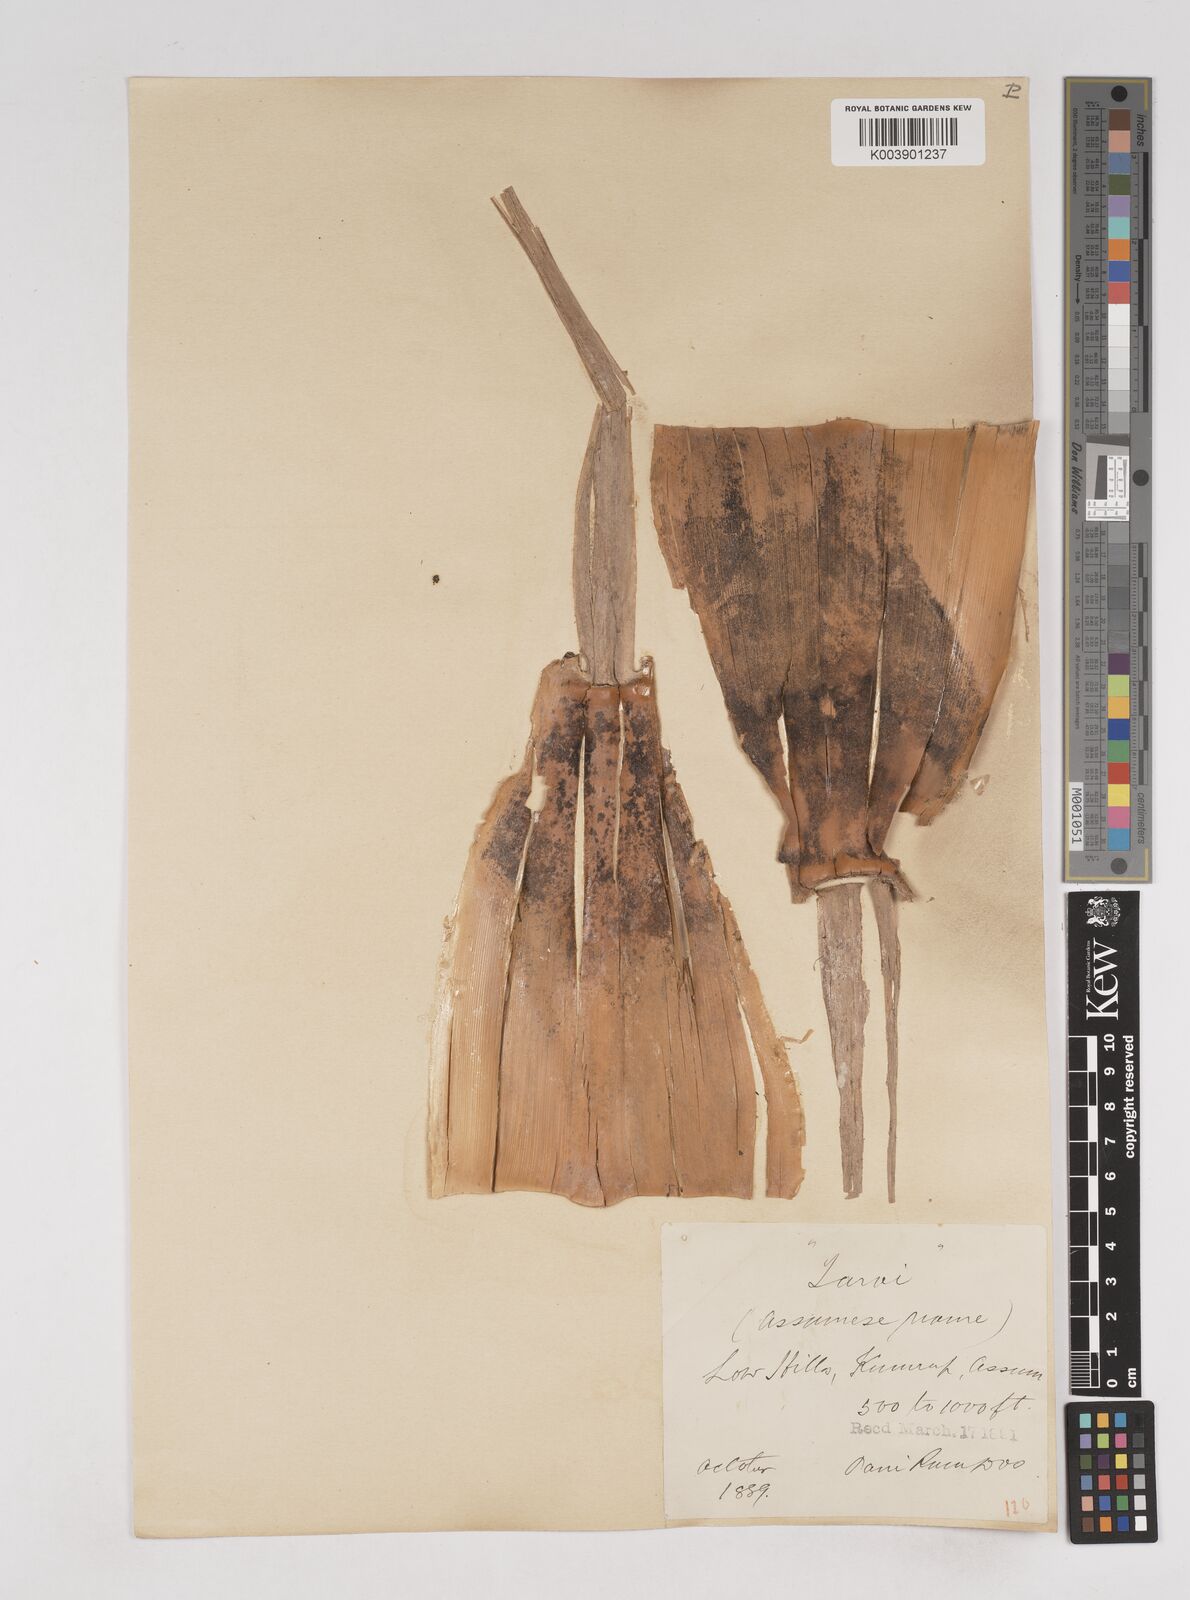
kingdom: Plantae
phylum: Tracheophyta
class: Liliopsida
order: Poales
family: Poaceae
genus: Melocanna
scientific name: Melocanna baccifera
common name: Berry bamboo
